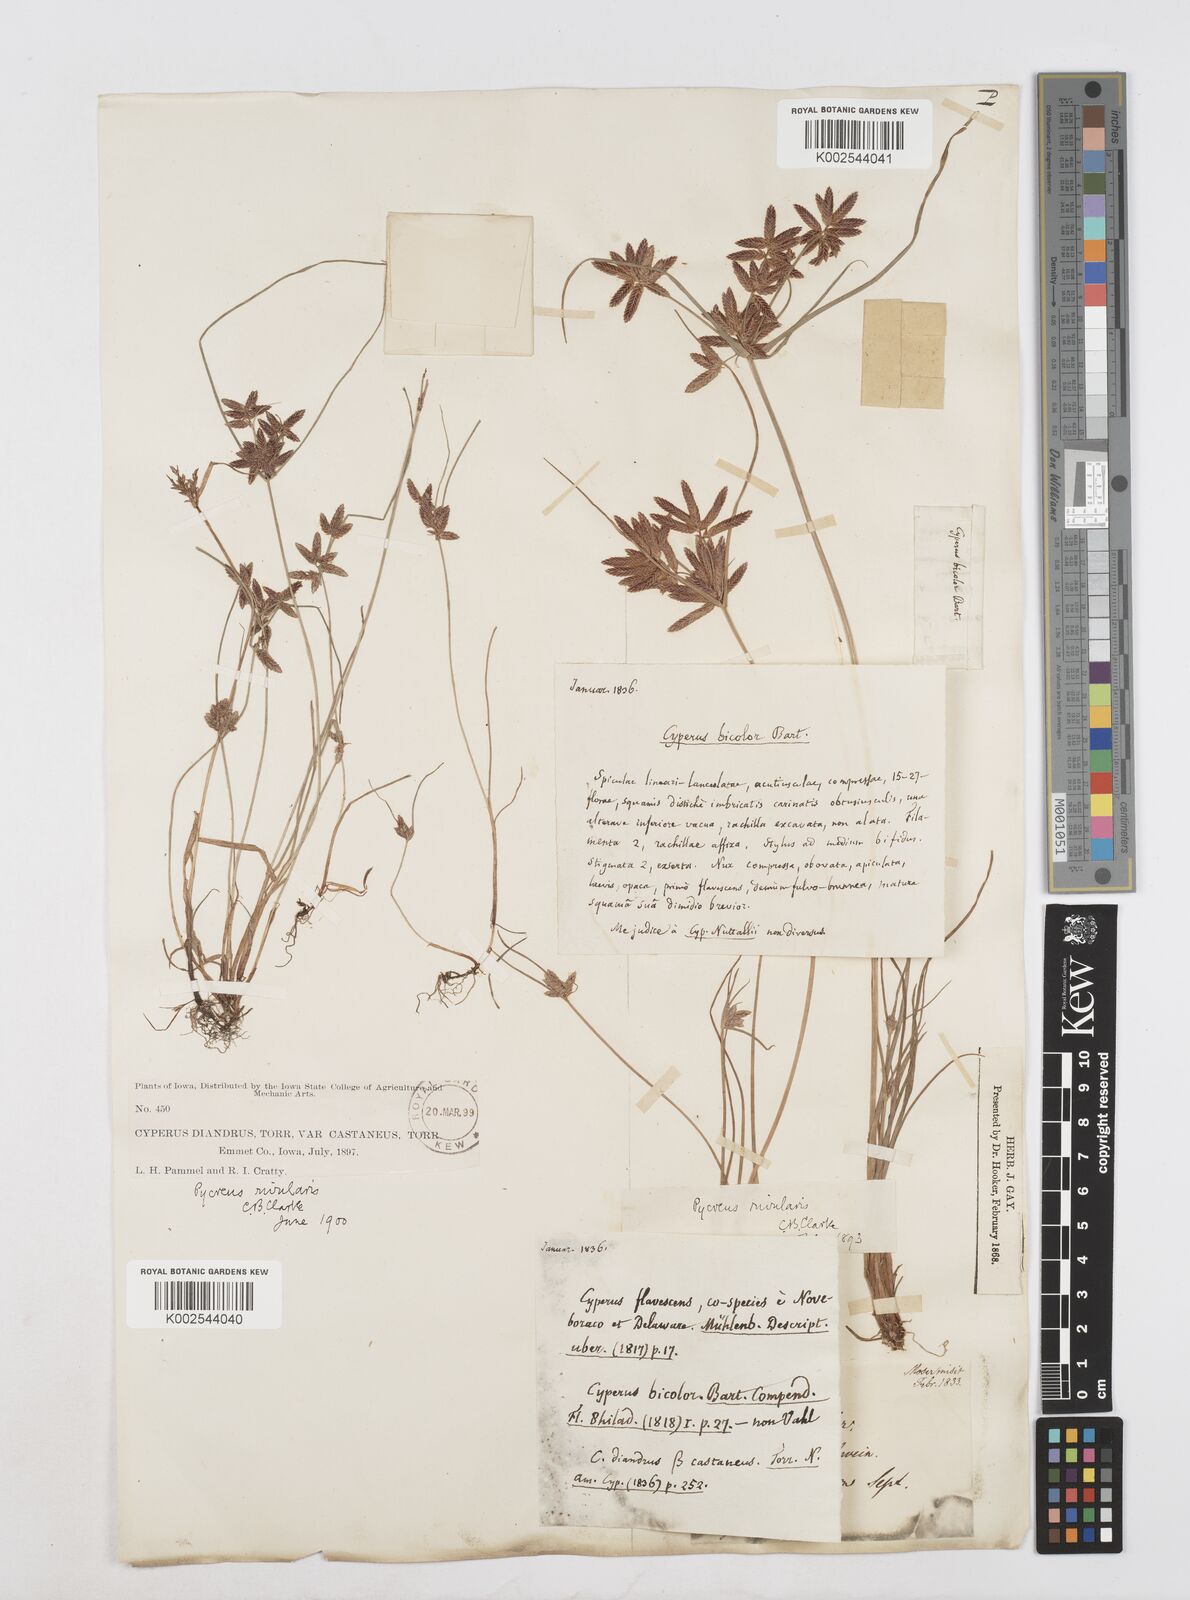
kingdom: Plantae
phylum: Tracheophyta
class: Liliopsida
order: Poales
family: Cyperaceae
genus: Cyperus
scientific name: Cyperus bipartitus
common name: Brook flatsedge
